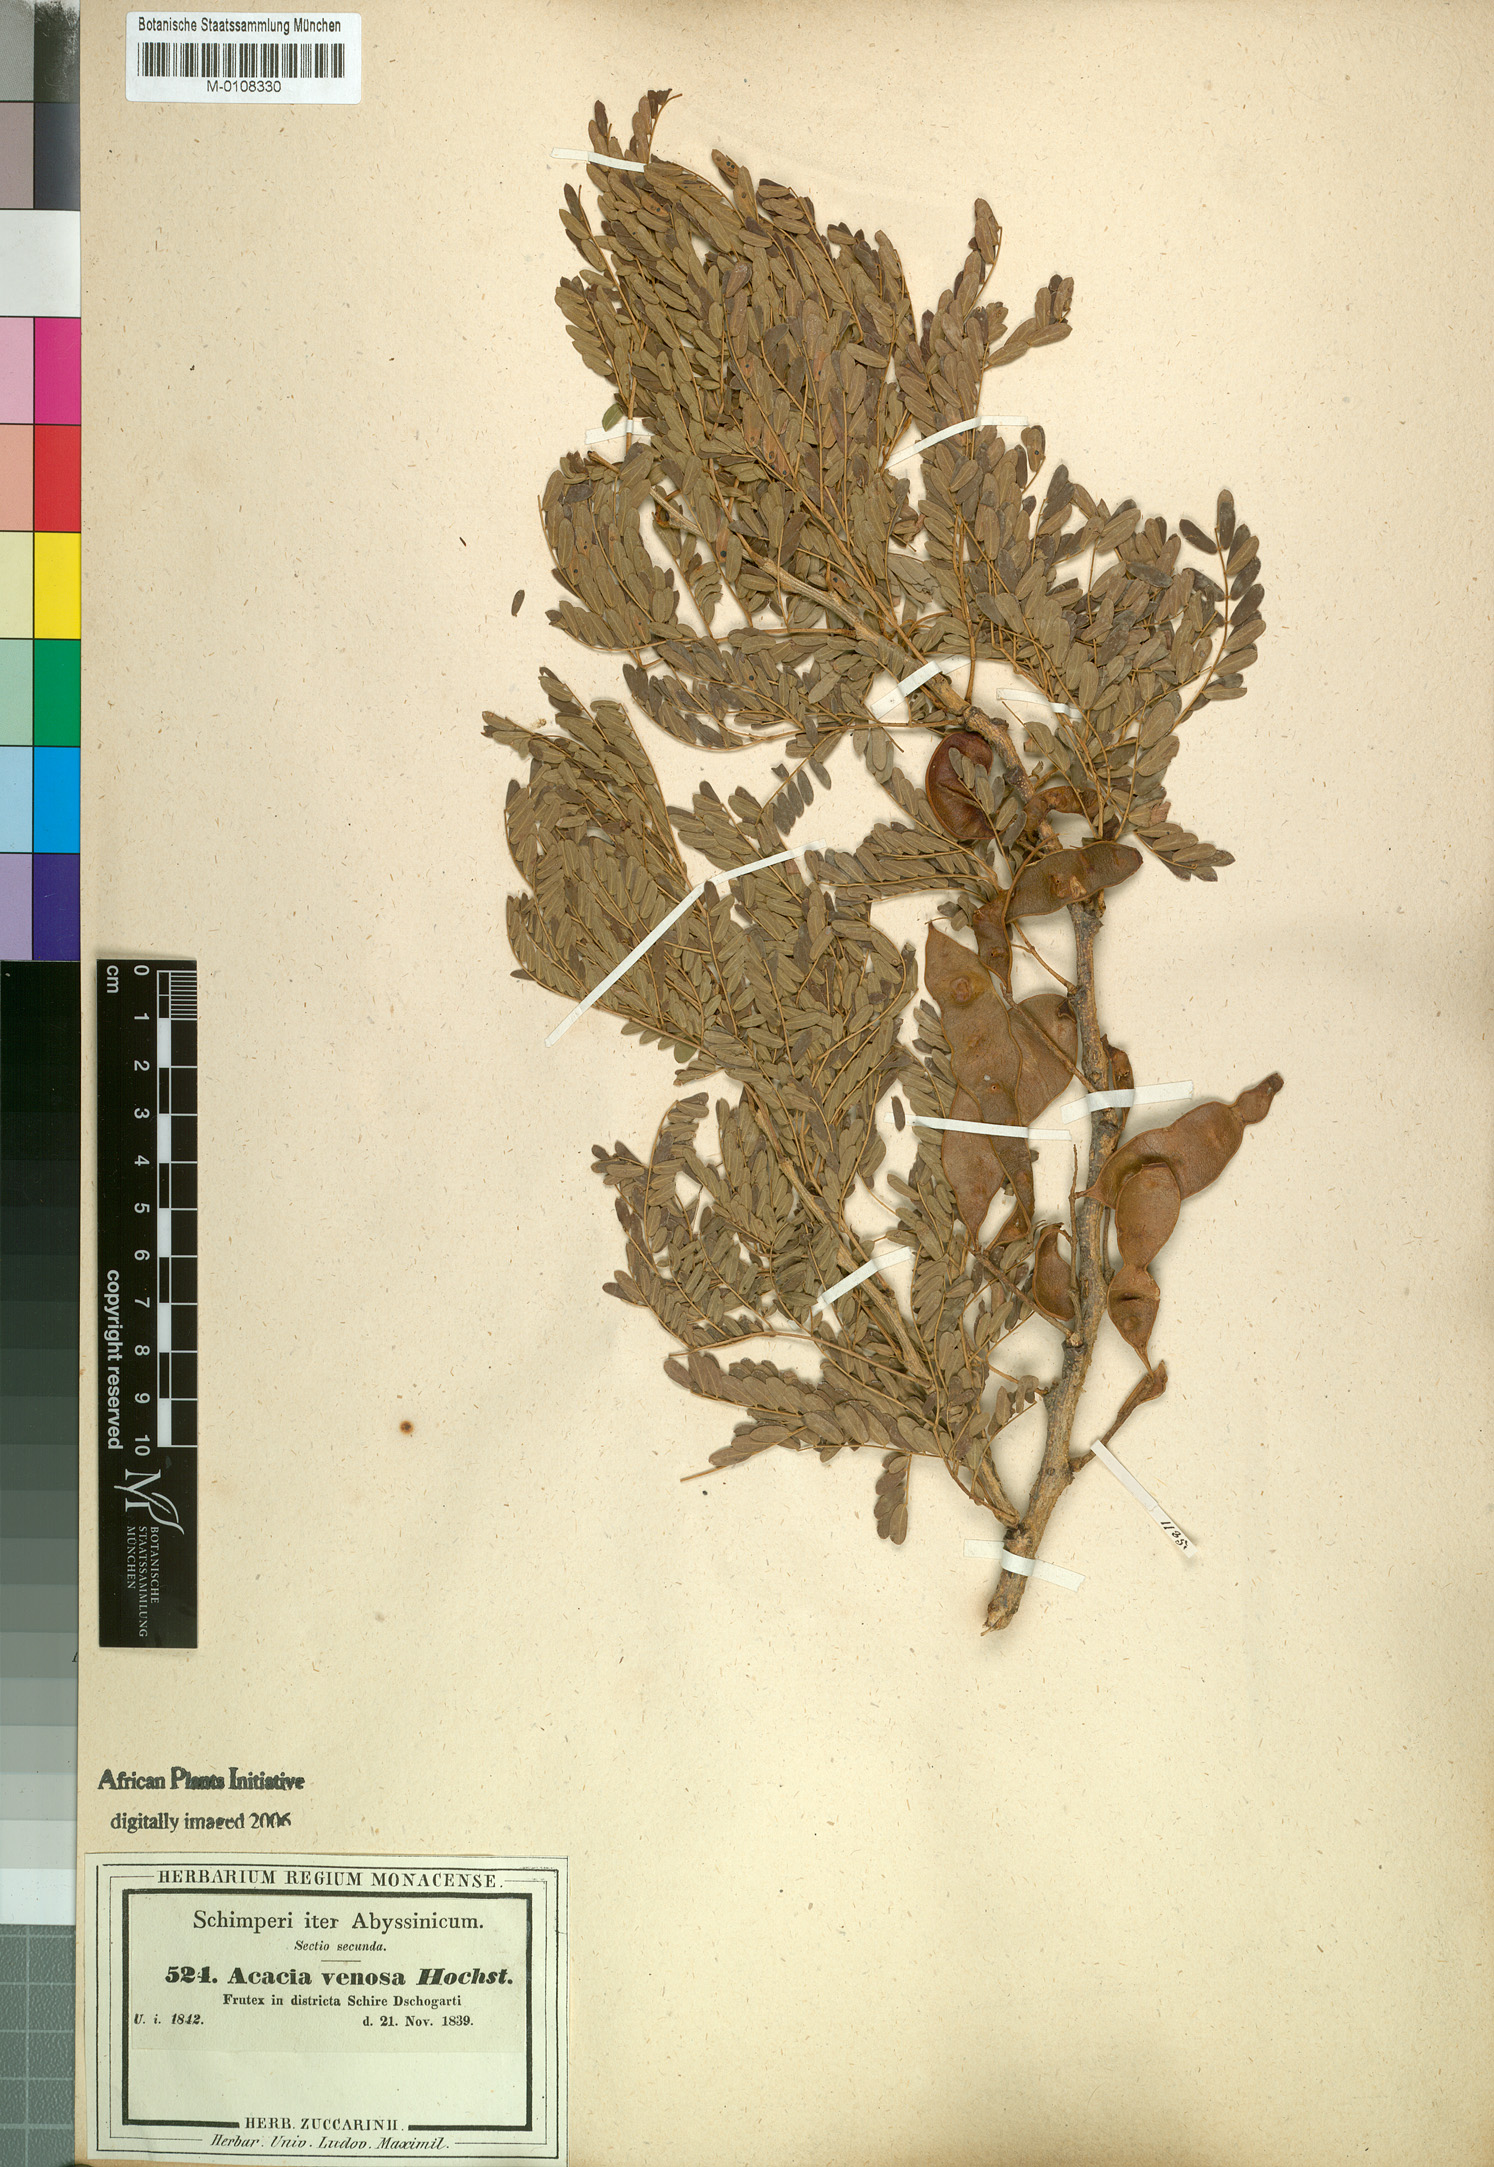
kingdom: Plantae
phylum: Tracheophyta
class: Magnoliopsida
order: Fabales
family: Fabaceae
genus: Senegalia
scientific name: Senegalia venosa
